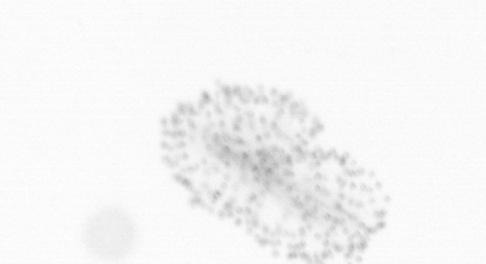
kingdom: Chromista
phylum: Ochrophyta
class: Bacillariophyceae
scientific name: Bacillariophyceae
